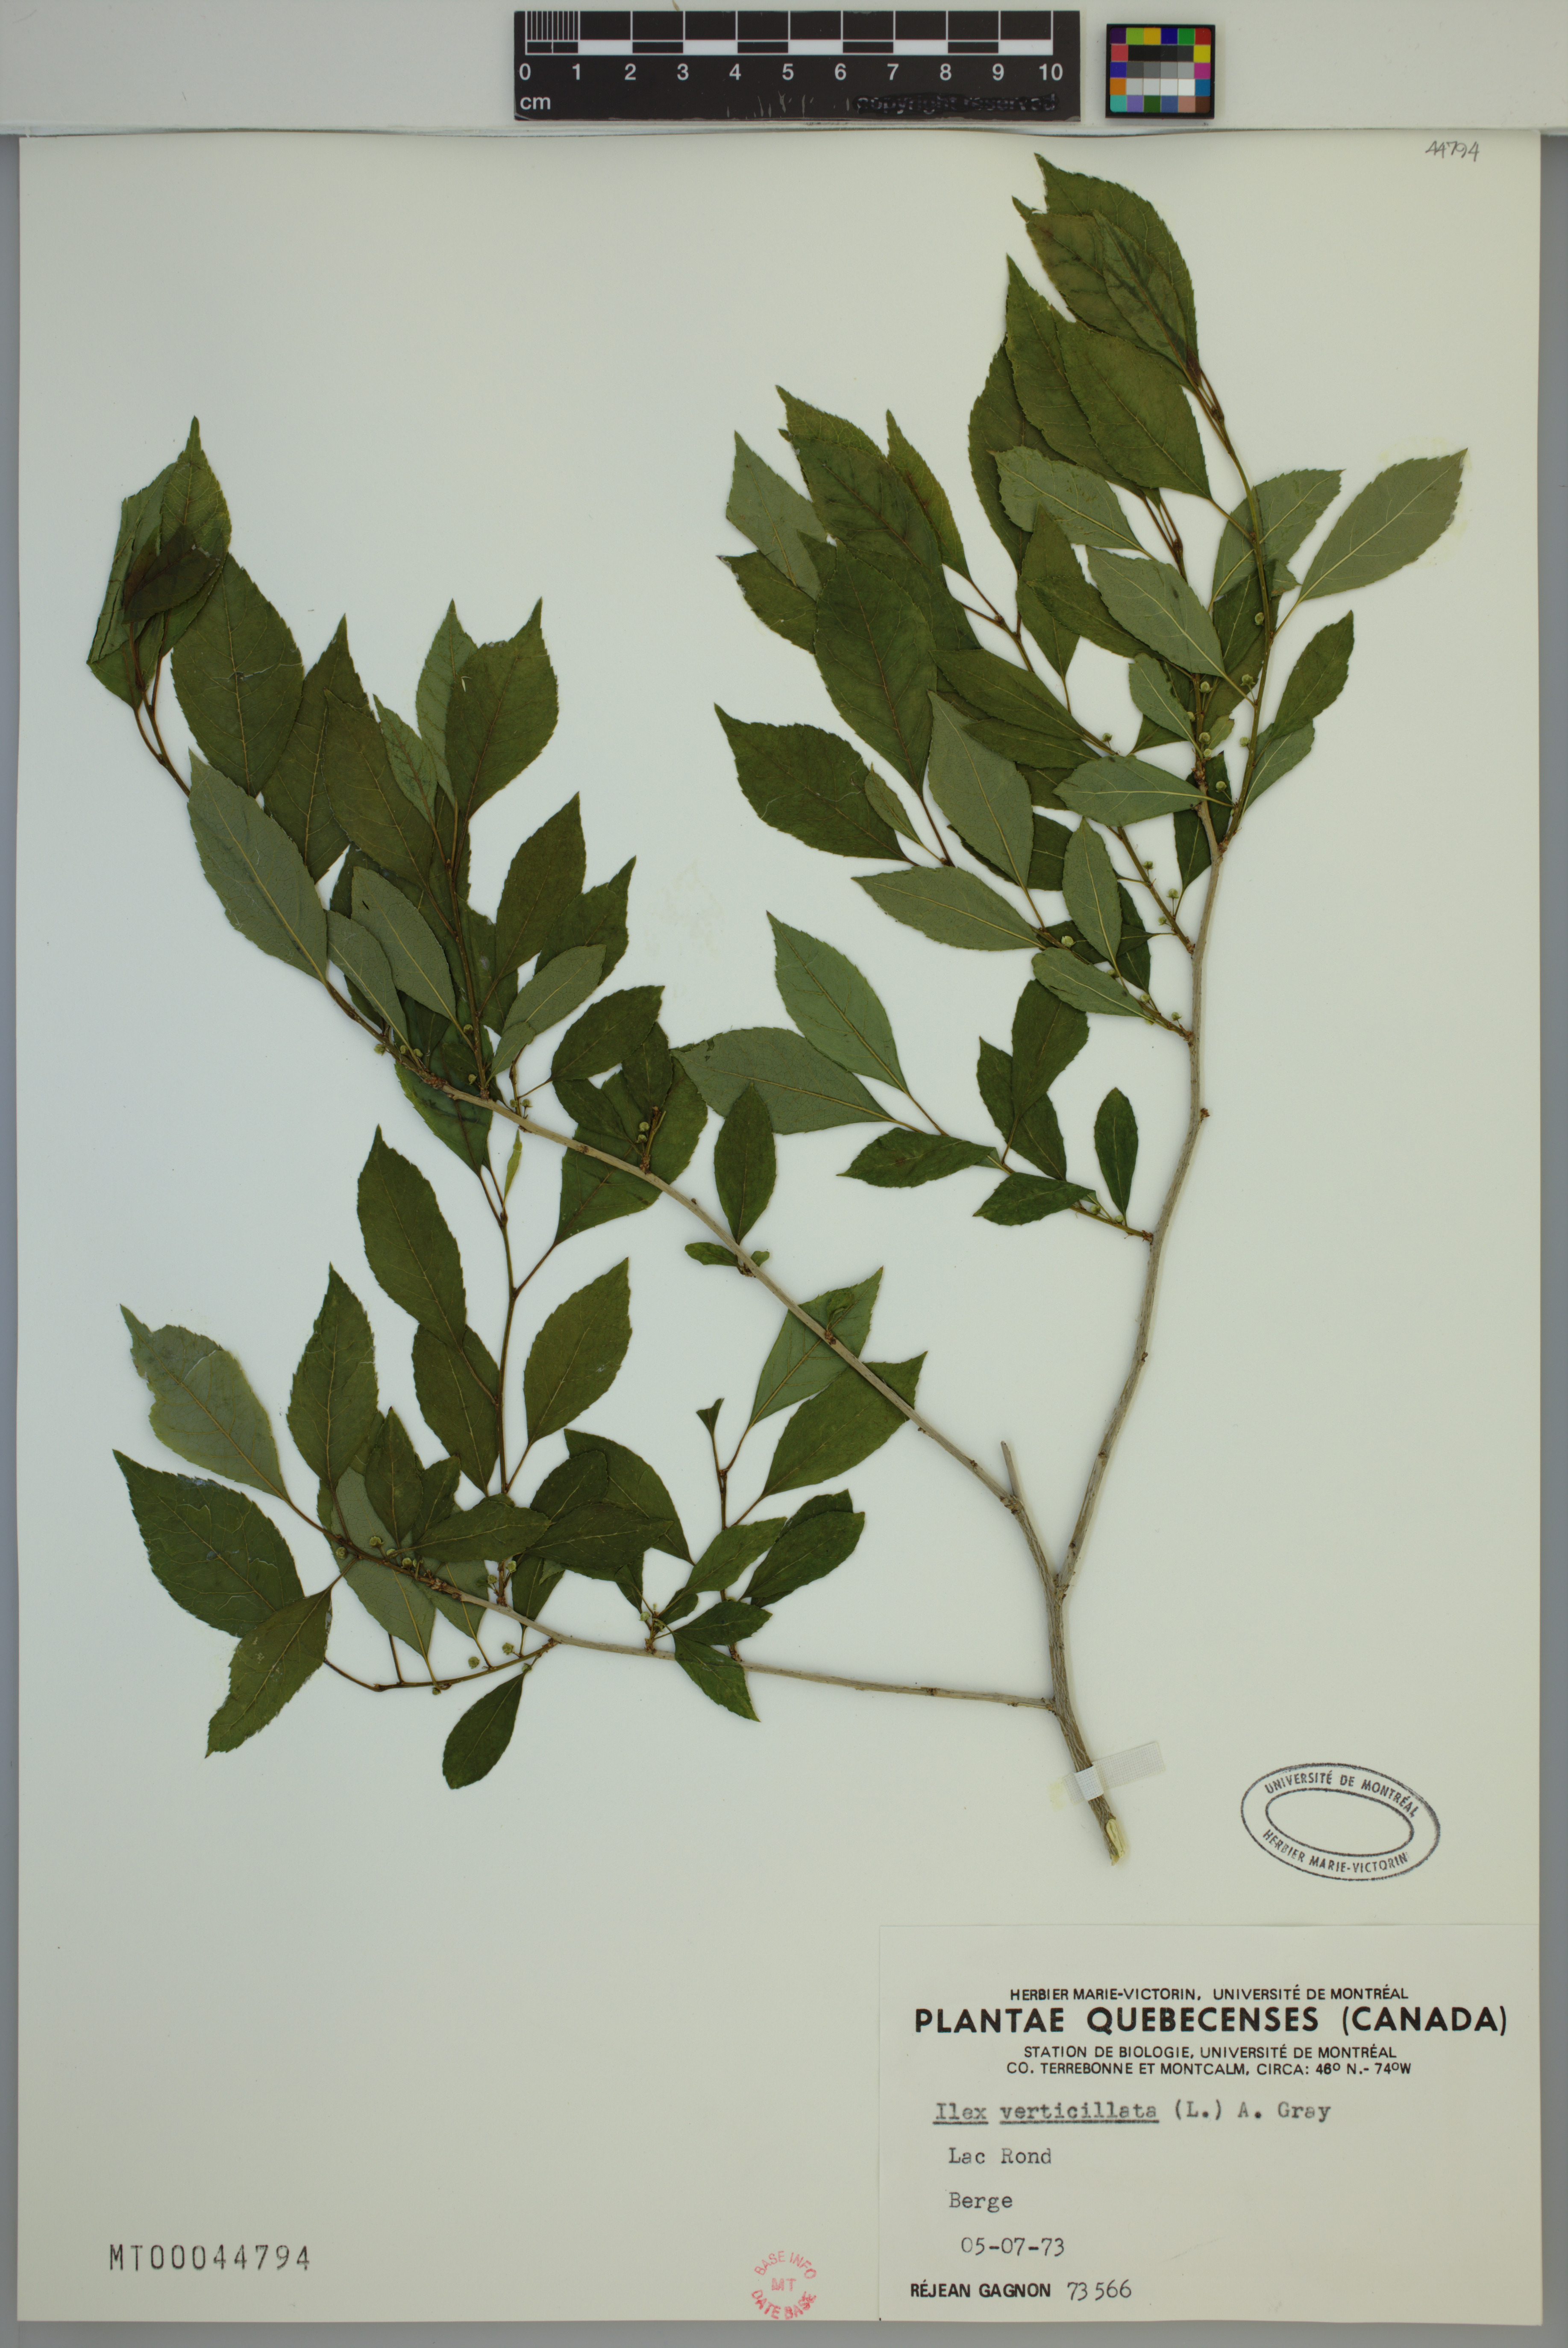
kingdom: Plantae
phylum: Tracheophyta
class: Magnoliopsida
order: Aquifoliales
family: Aquifoliaceae
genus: Ilex
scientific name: Ilex verticillata
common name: Virginia winterberry
